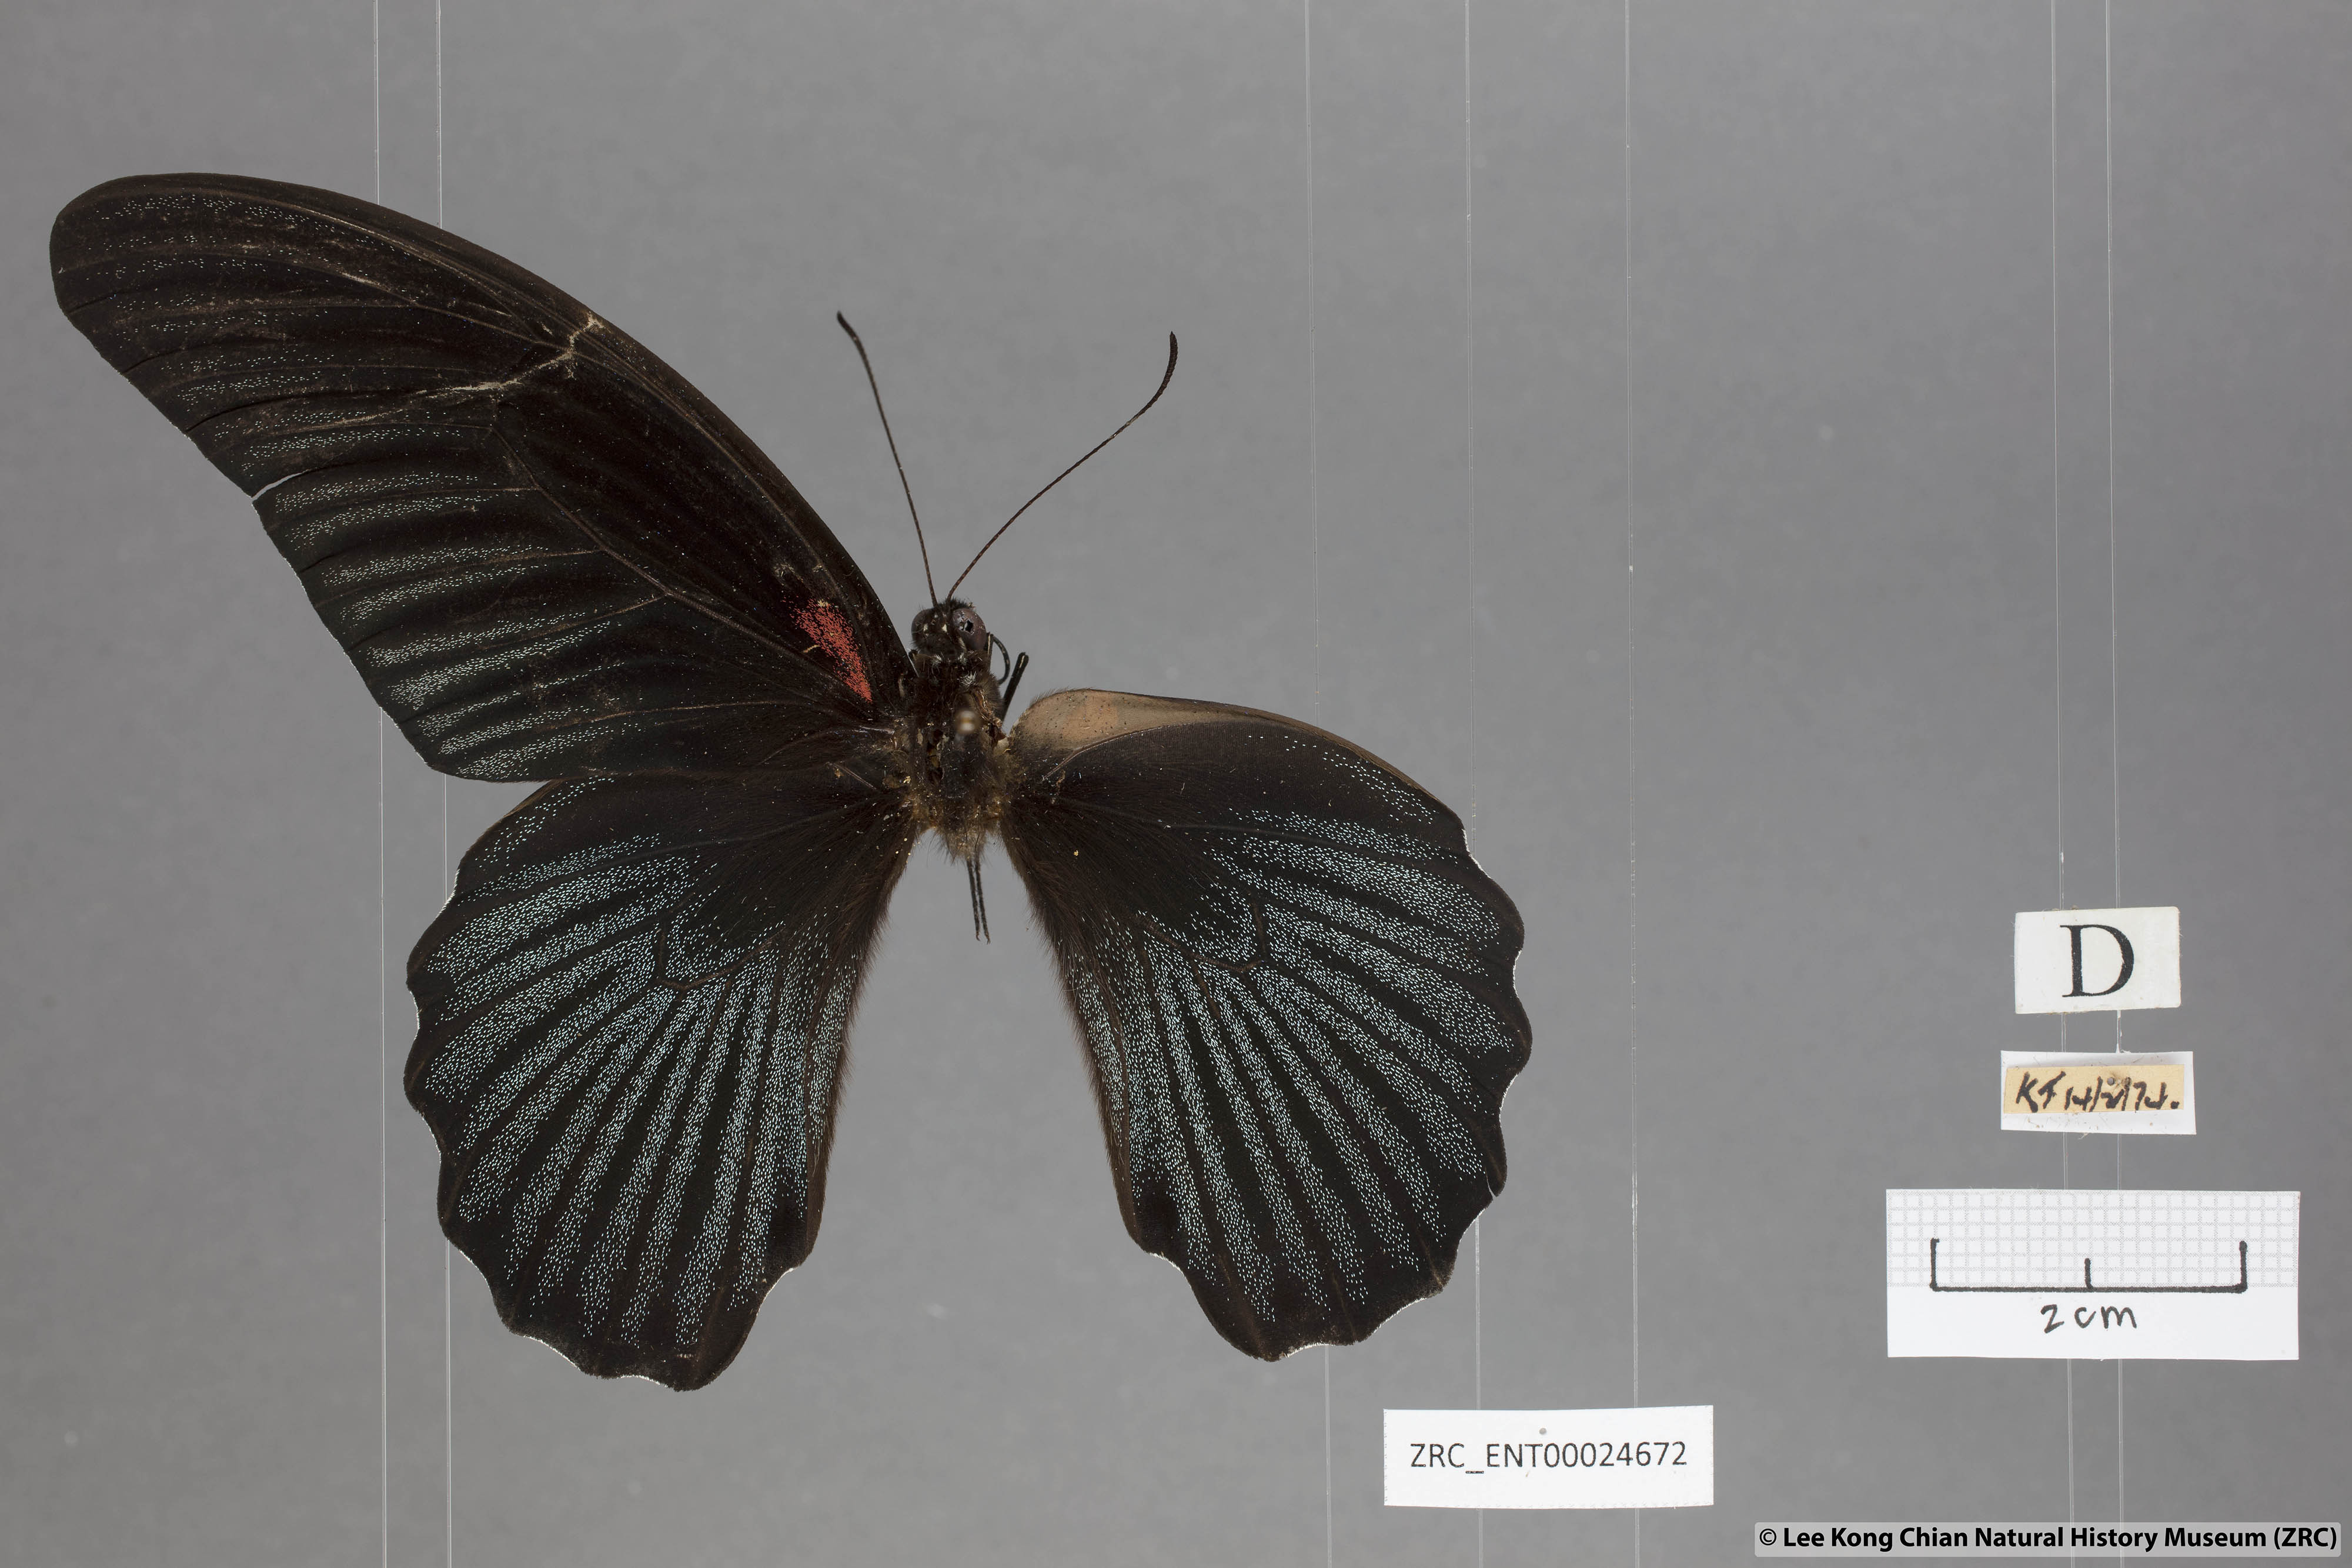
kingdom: Animalia
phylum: Arthropoda
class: Insecta
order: Lepidoptera
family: Papilionidae
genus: Papilio
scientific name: Papilio memnon
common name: Great mormon
